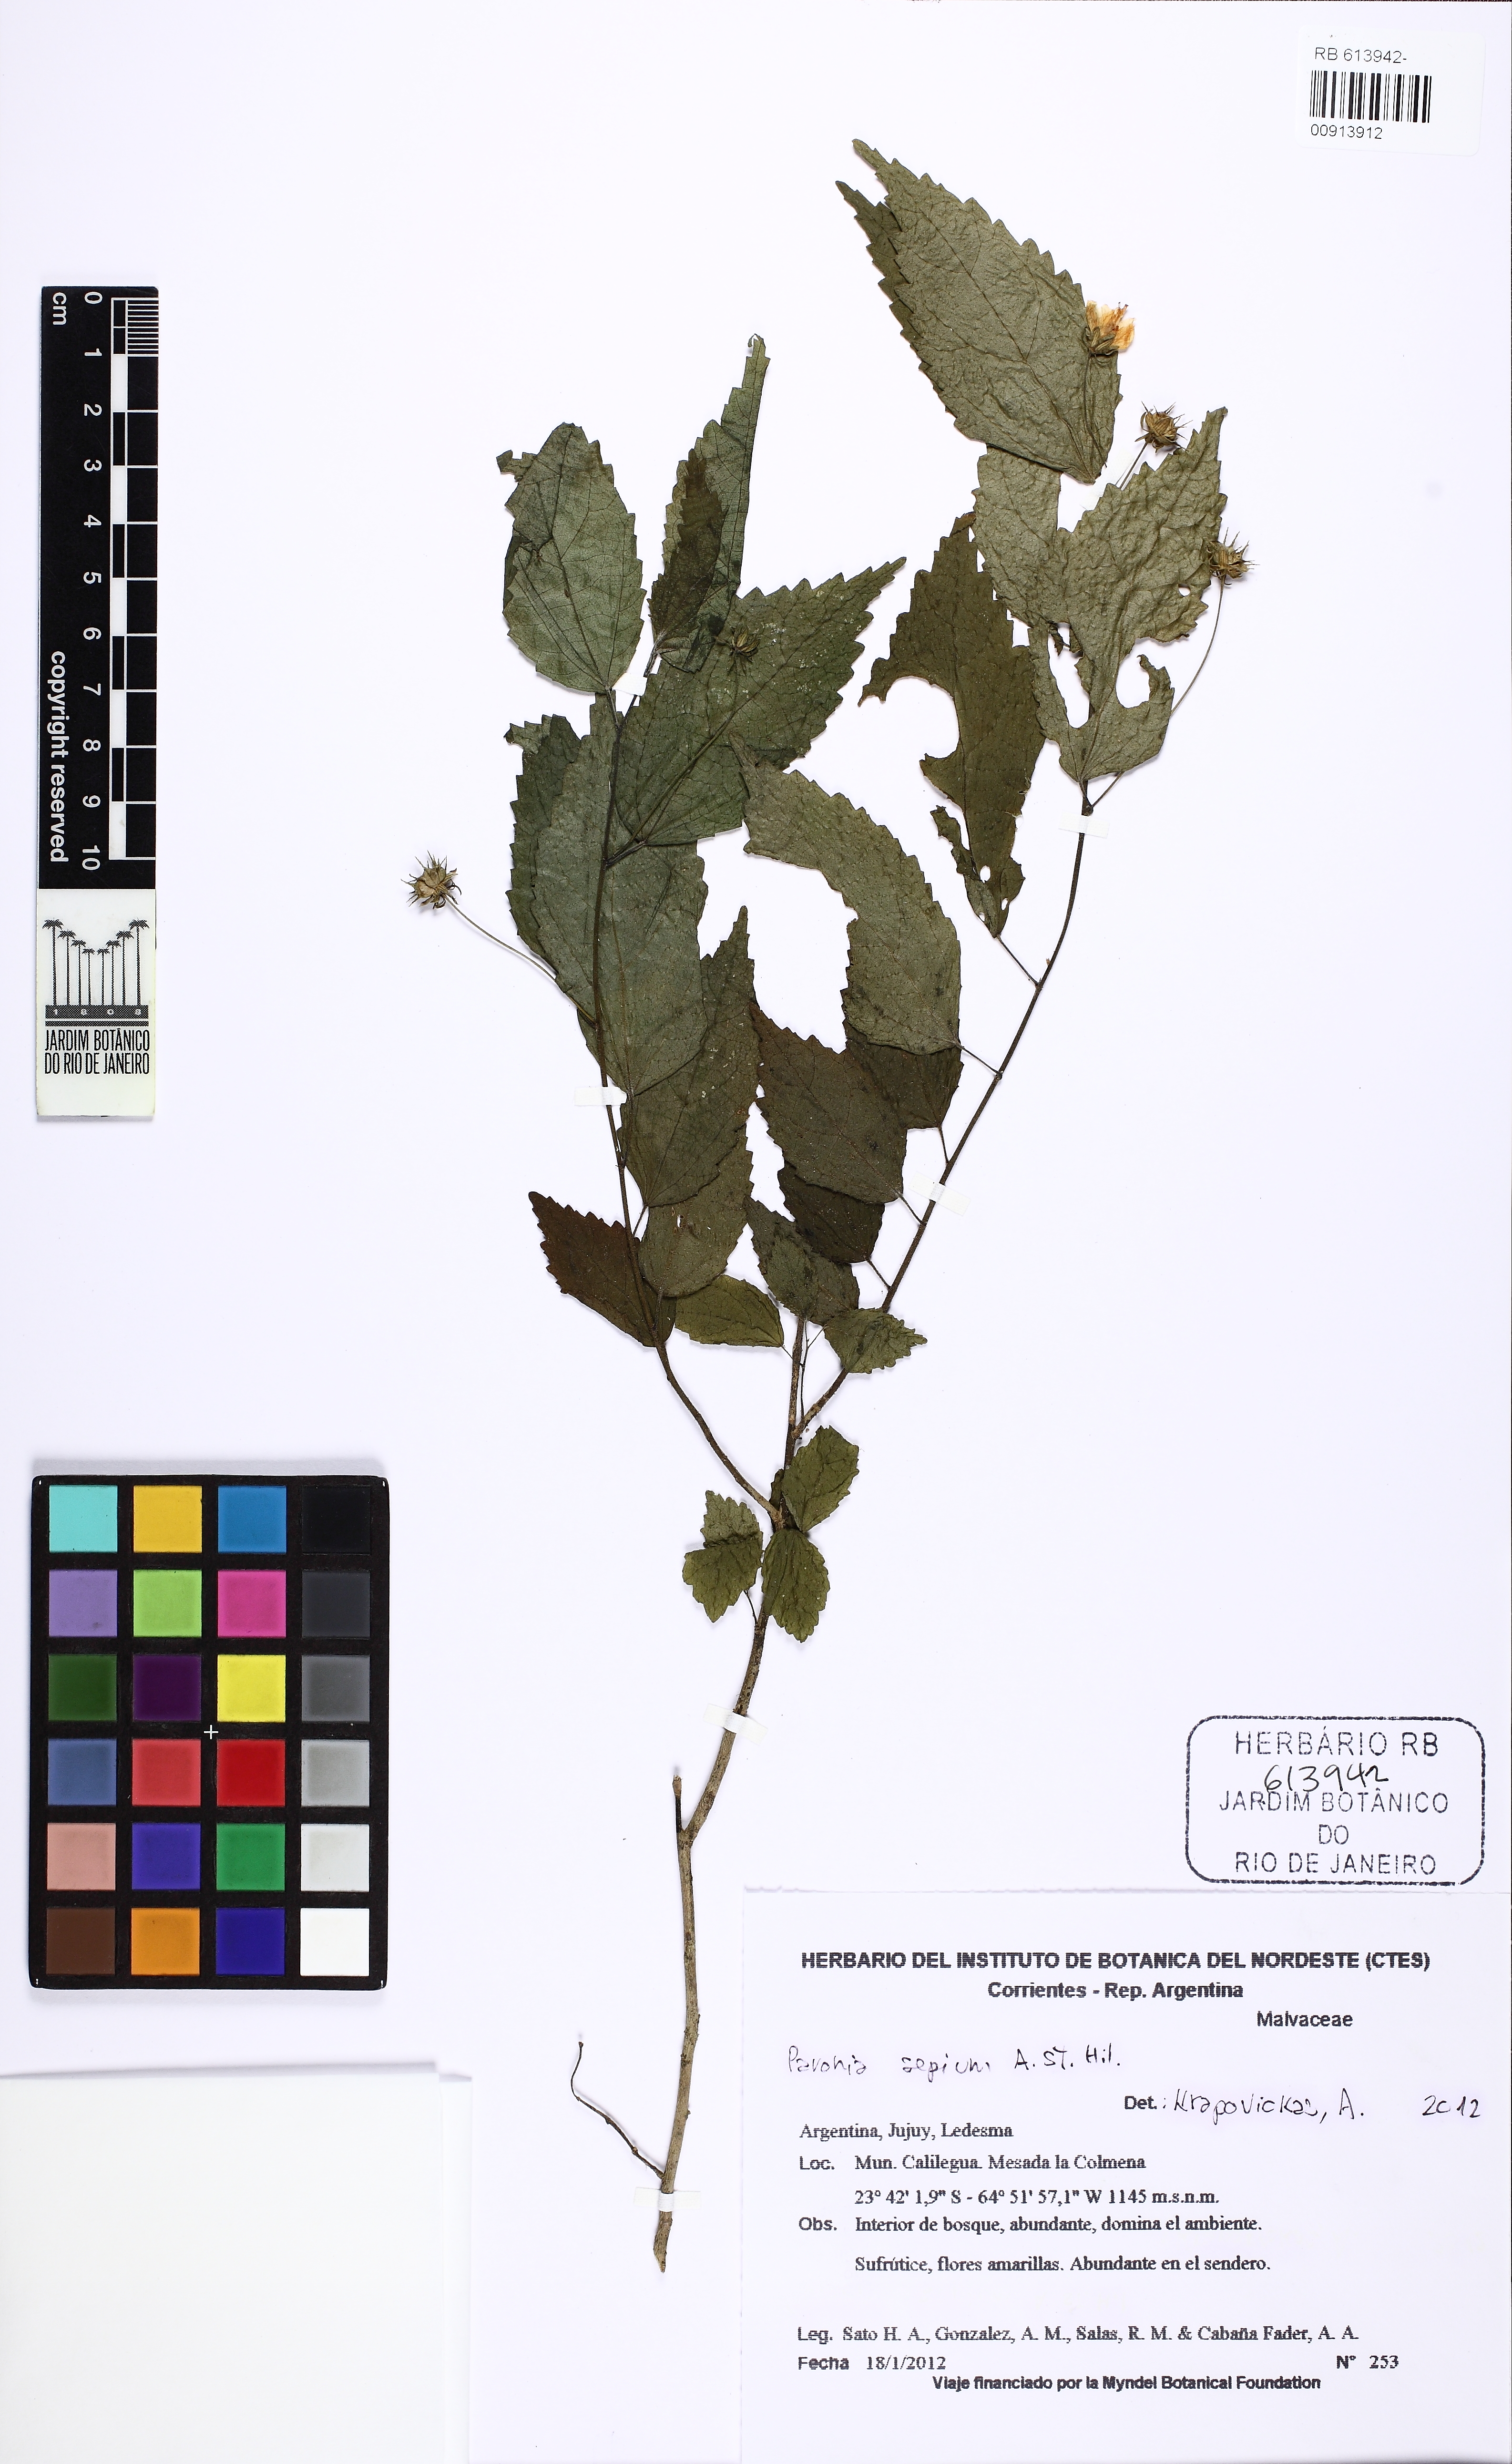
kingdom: Plantae
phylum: Tracheophyta
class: Magnoliopsida
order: Malvales
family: Malvaceae
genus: Pavonia
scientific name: Pavonia sepium
